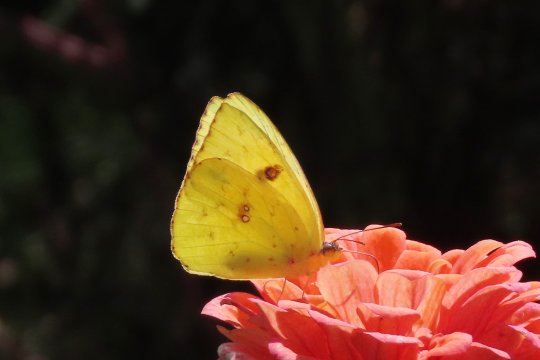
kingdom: Animalia
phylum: Arthropoda
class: Insecta
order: Lepidoptera
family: Pieridae
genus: Phoebis
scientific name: Phoebis sennae
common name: Cloudless Sulphur
